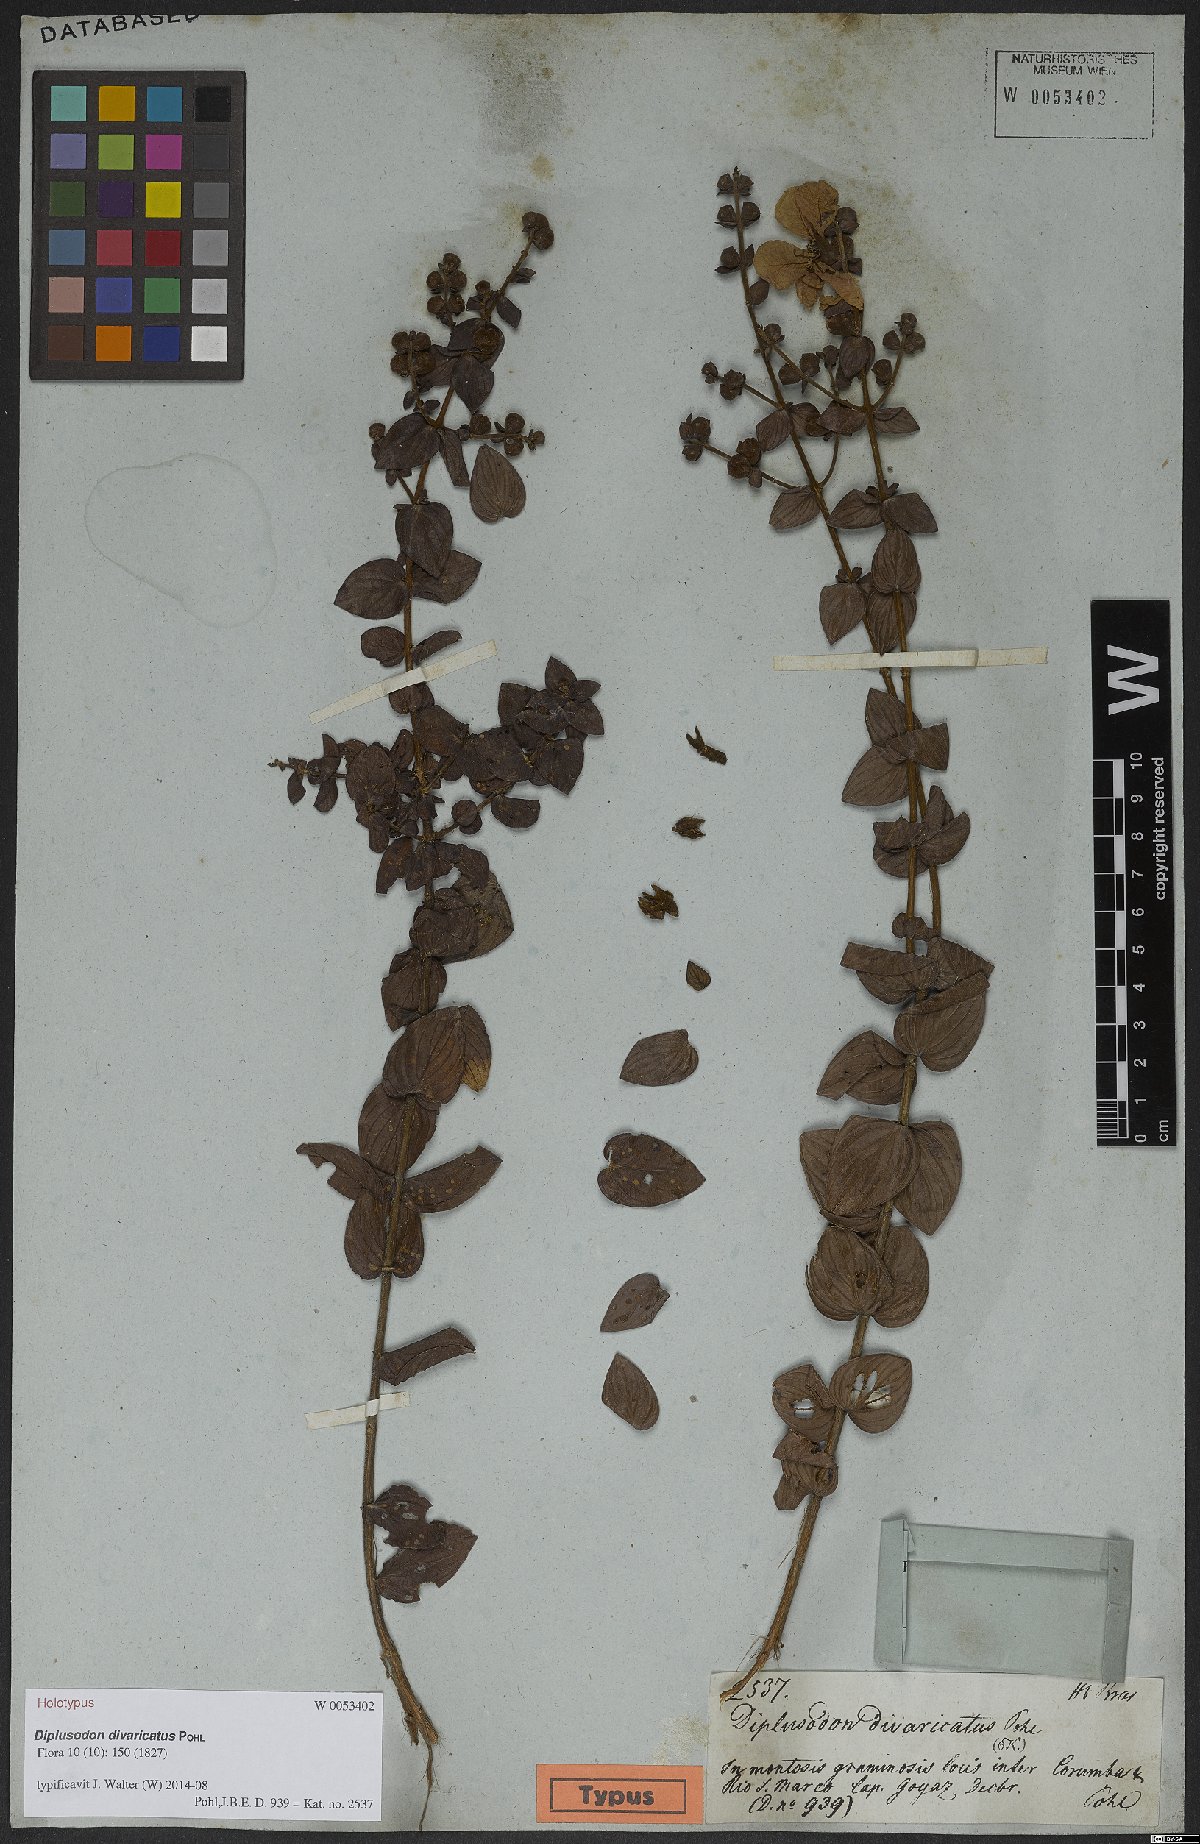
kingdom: Plantae
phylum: Tracheophyta
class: Magnoliopsida
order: Myrtales
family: Lythraceae
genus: Diplusodon
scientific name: Diplusodon divaricatus
